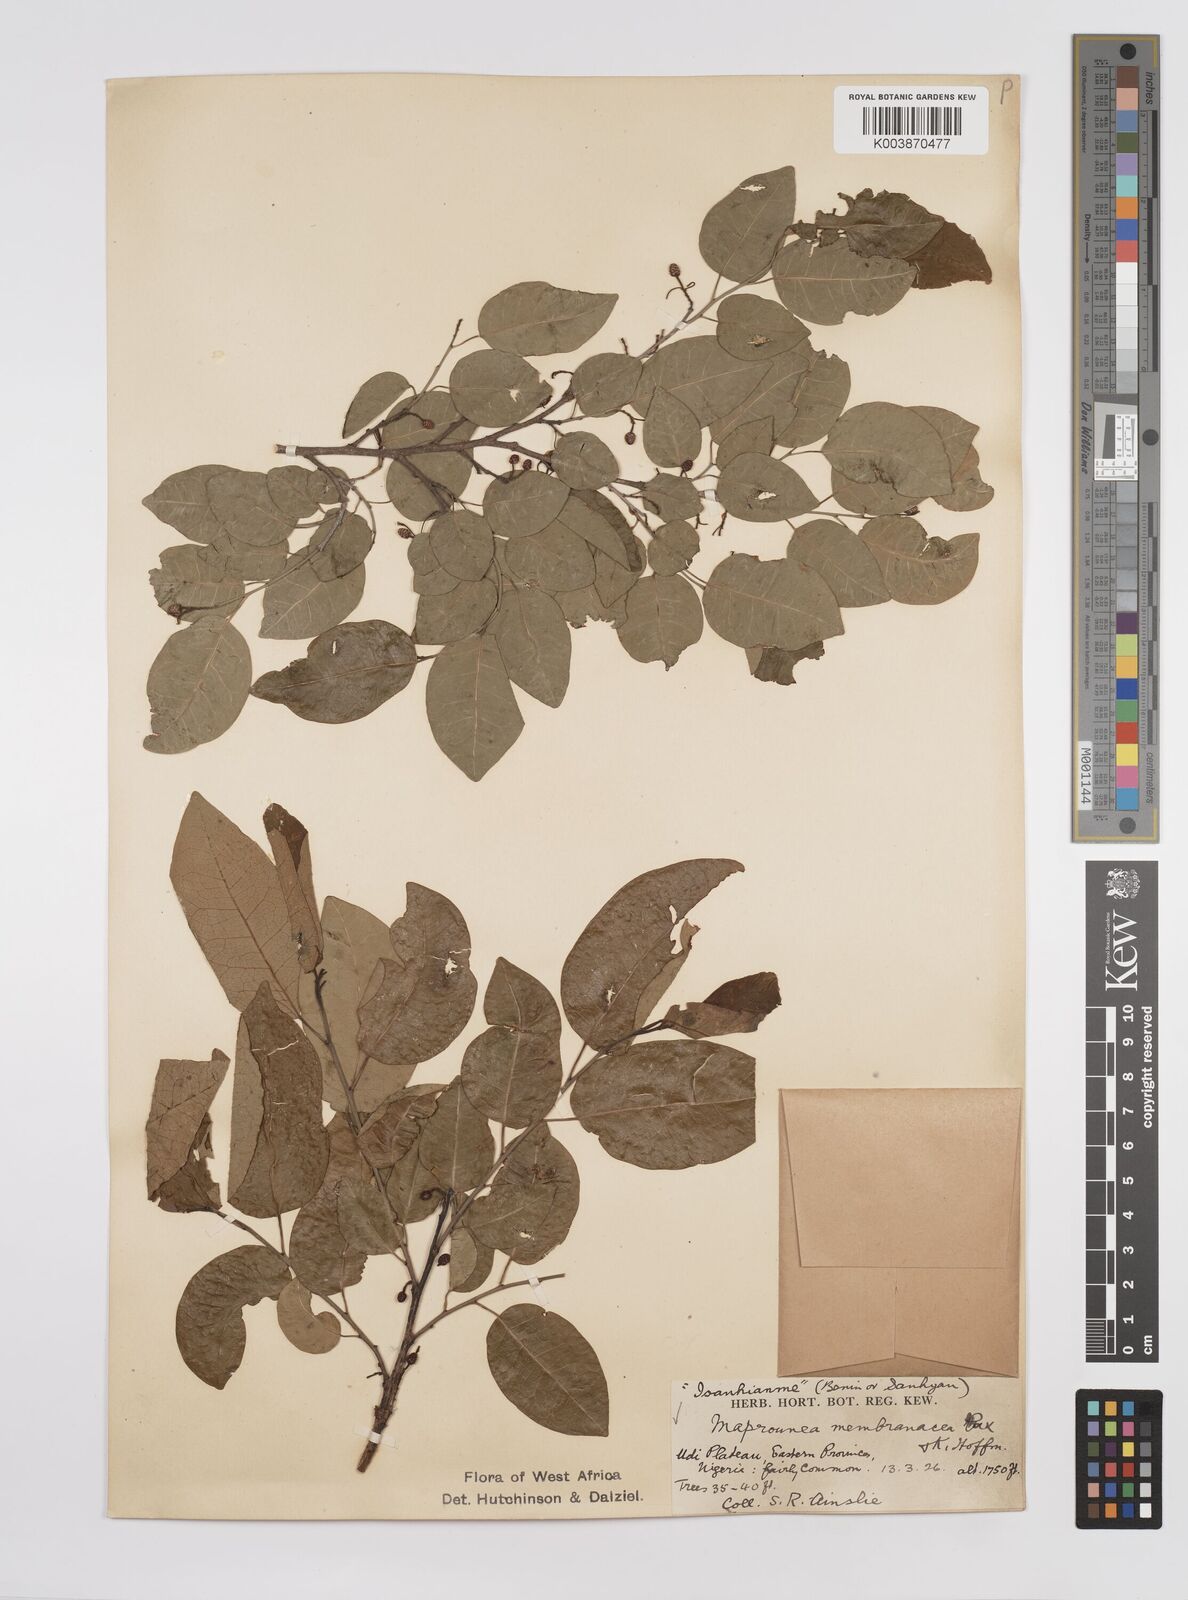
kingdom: Plantae
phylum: Tracheophyta
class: Magnoliopsida
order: Malpighiales
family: Euphorbiaceae
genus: Maprounea
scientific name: Maprounea membranacea
